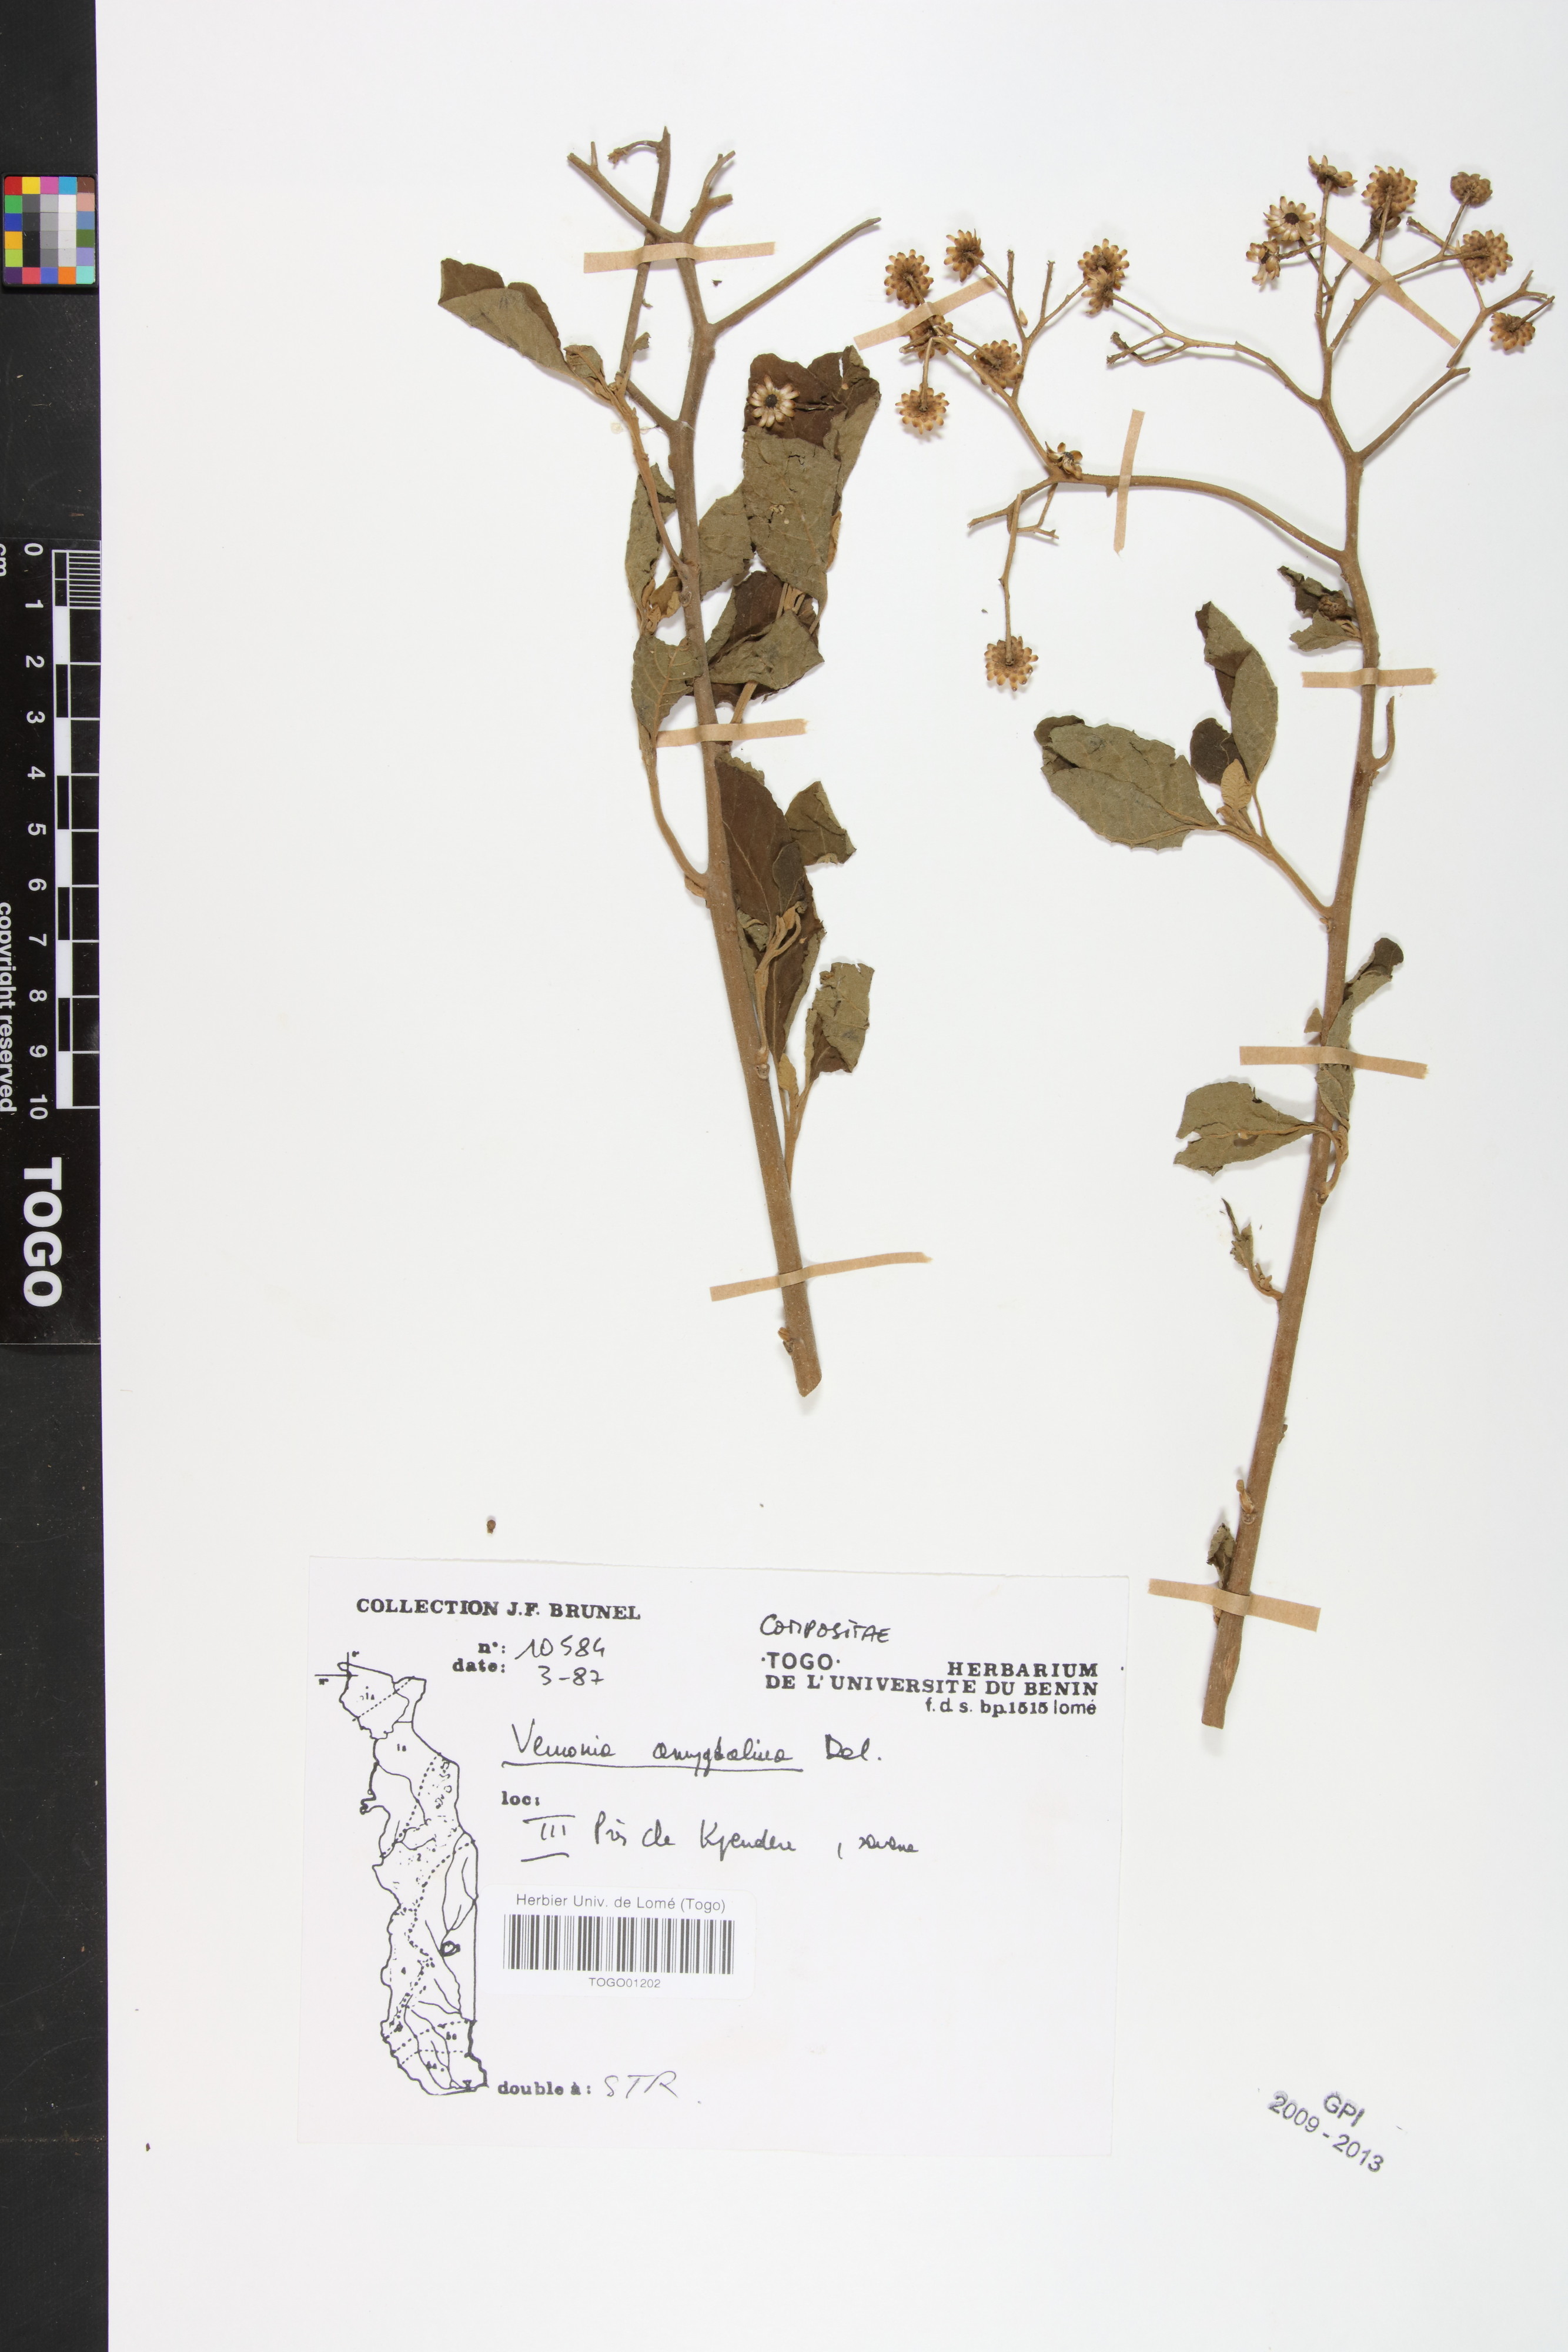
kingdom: Plantae
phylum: Tracheophyta
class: Magnoliopsida
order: Asterales
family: Asteraceae
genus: Gymnanthemum
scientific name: Gymnanthemum amygdalinum
